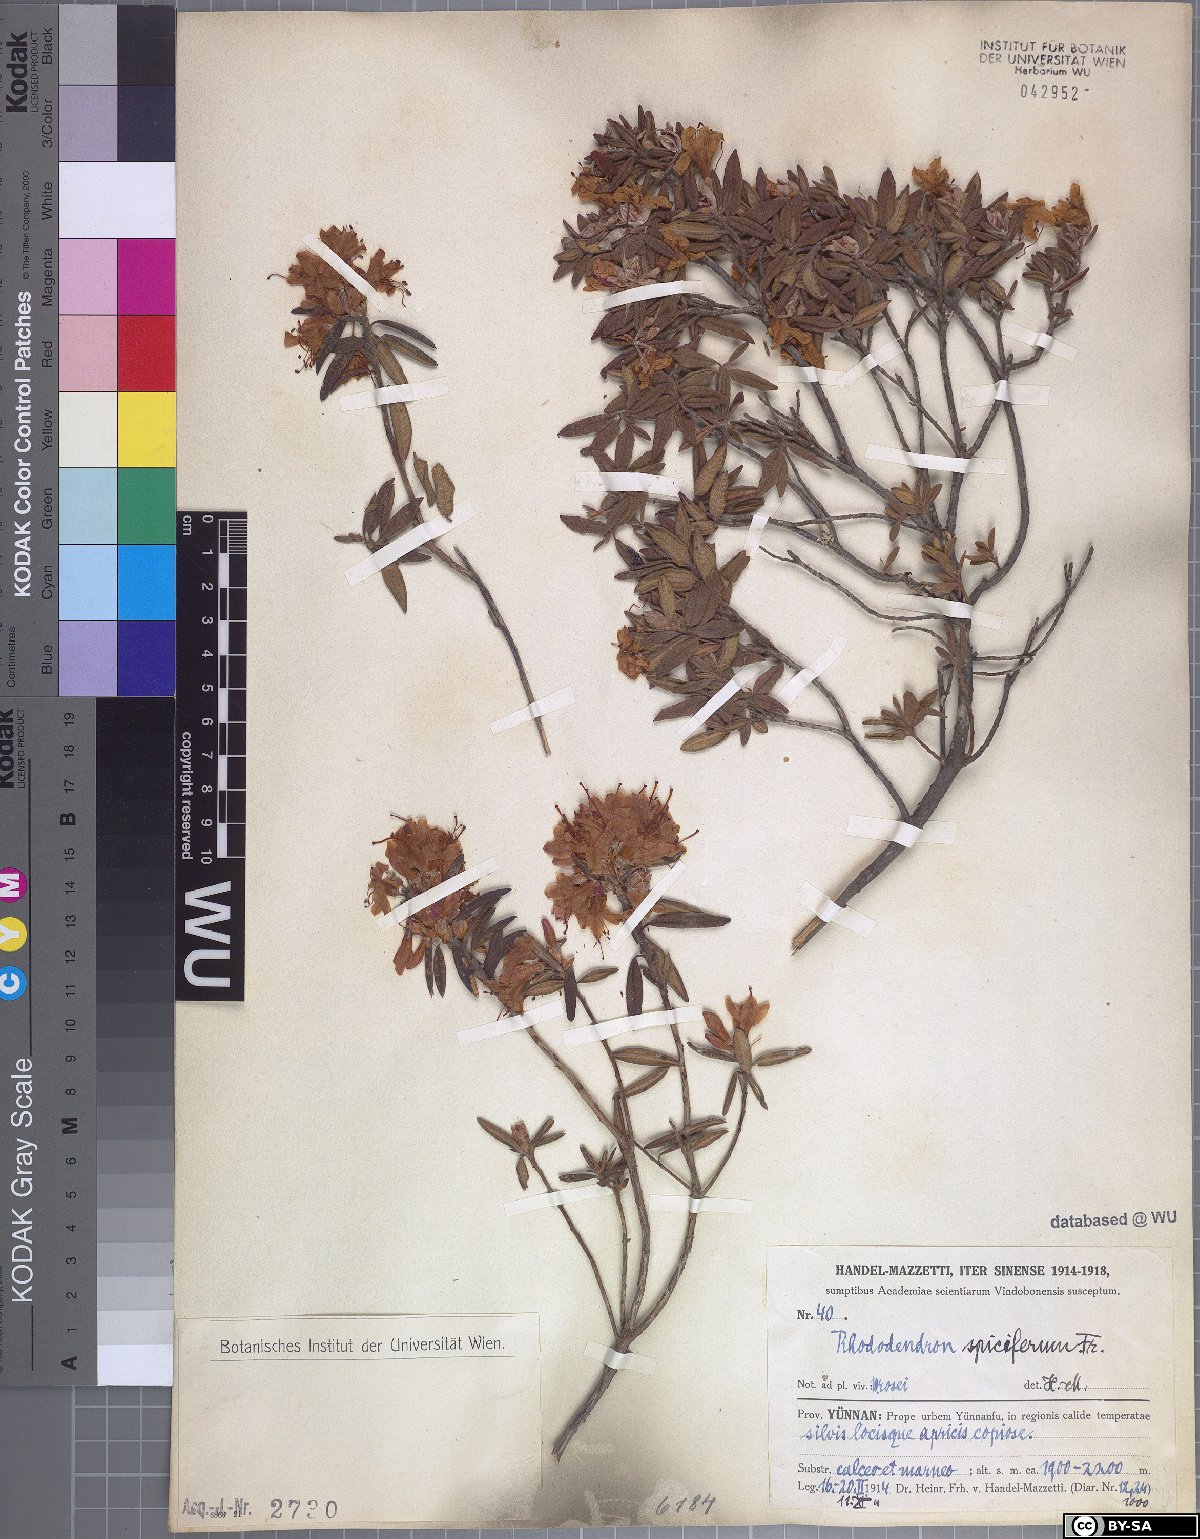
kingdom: Plantae
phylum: Tracheophyta
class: Magnoliopsida
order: Ericales
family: Ericaceae
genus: Rhododendron
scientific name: Rhododendron spiciferum
